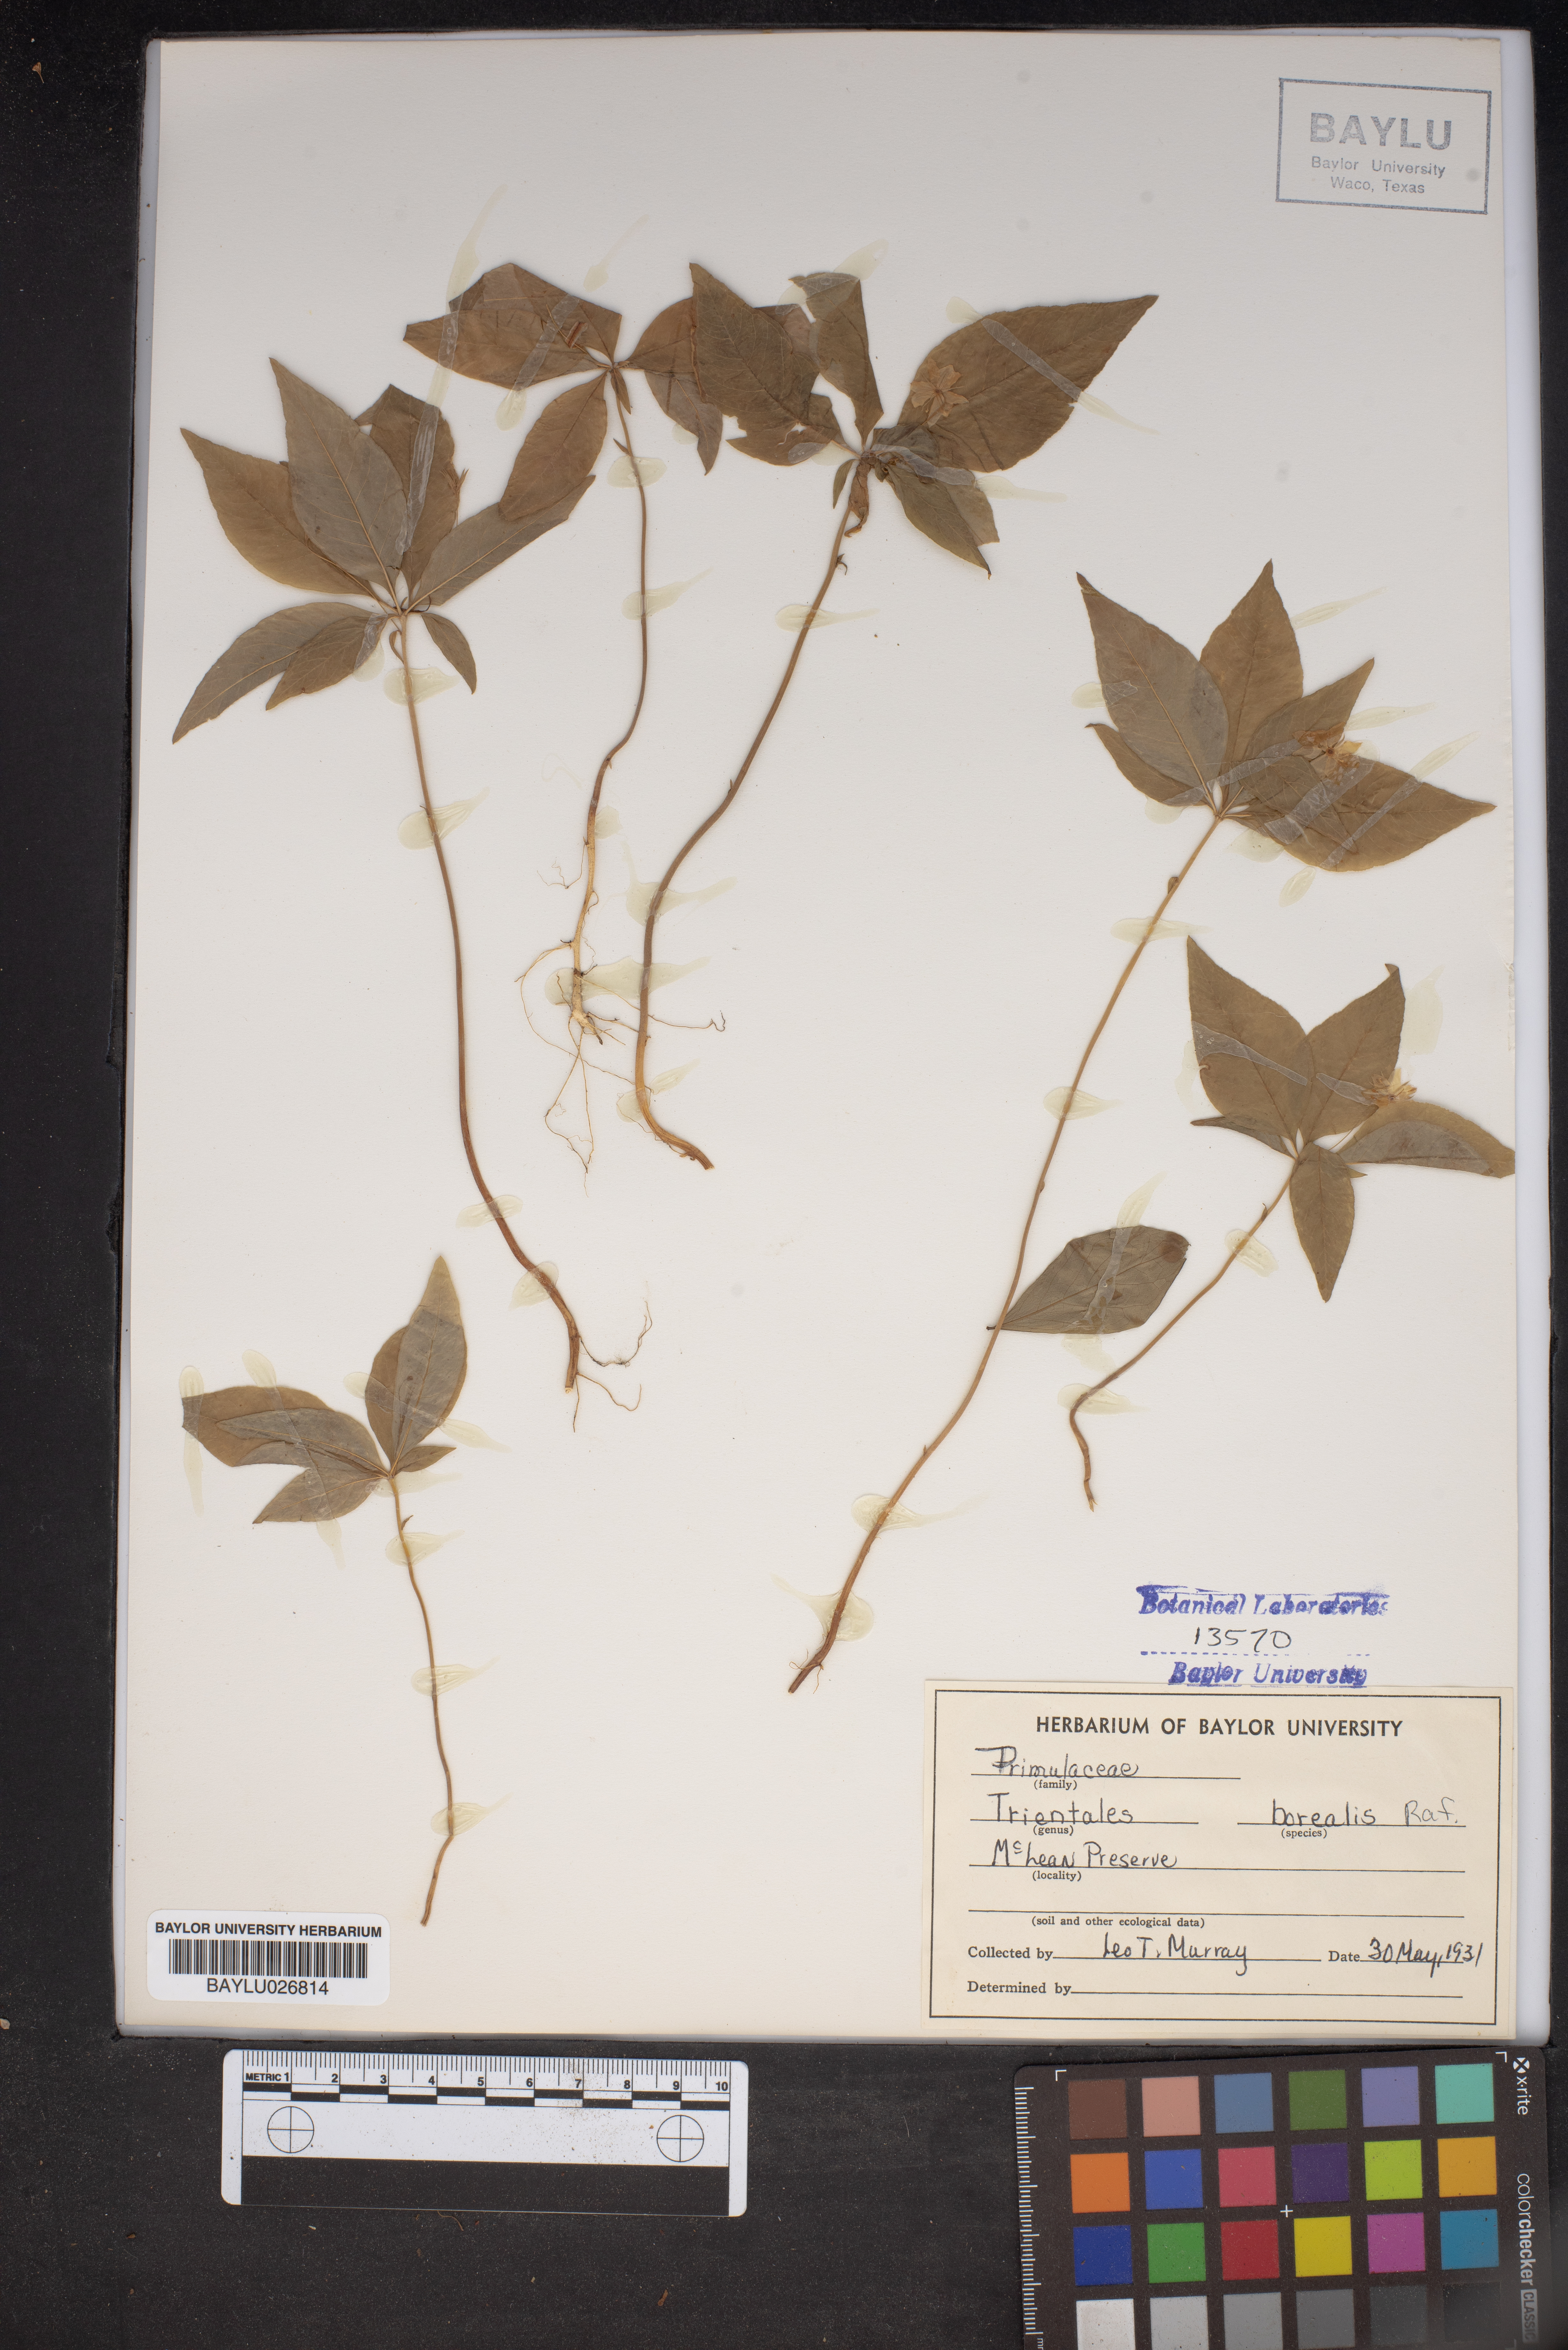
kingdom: Plantae
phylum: Tracheophyta
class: Magnoliopsida
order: Ericales
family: Primulaceae
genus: Lysimachia
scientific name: Lysimachia borealis
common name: American starflower
